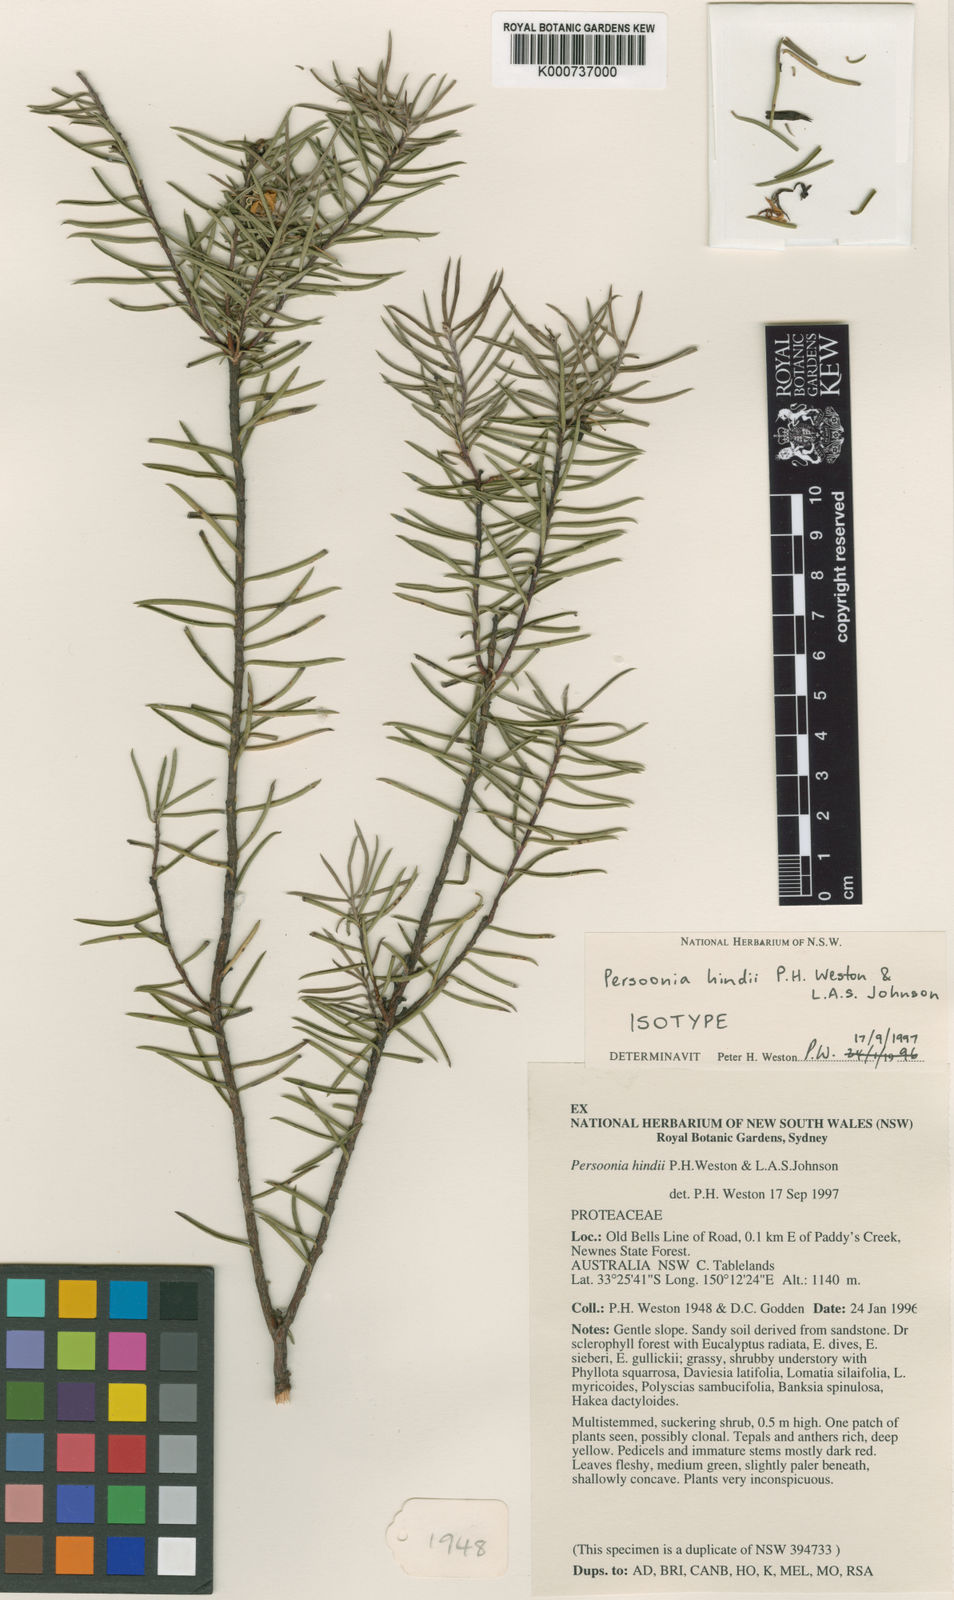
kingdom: Plantae
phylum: Tracheophyta
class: Magnoliopsida
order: Proteales
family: Proteaceae
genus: Persoonia
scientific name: Persoonia hindii
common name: Persoonia hindii
